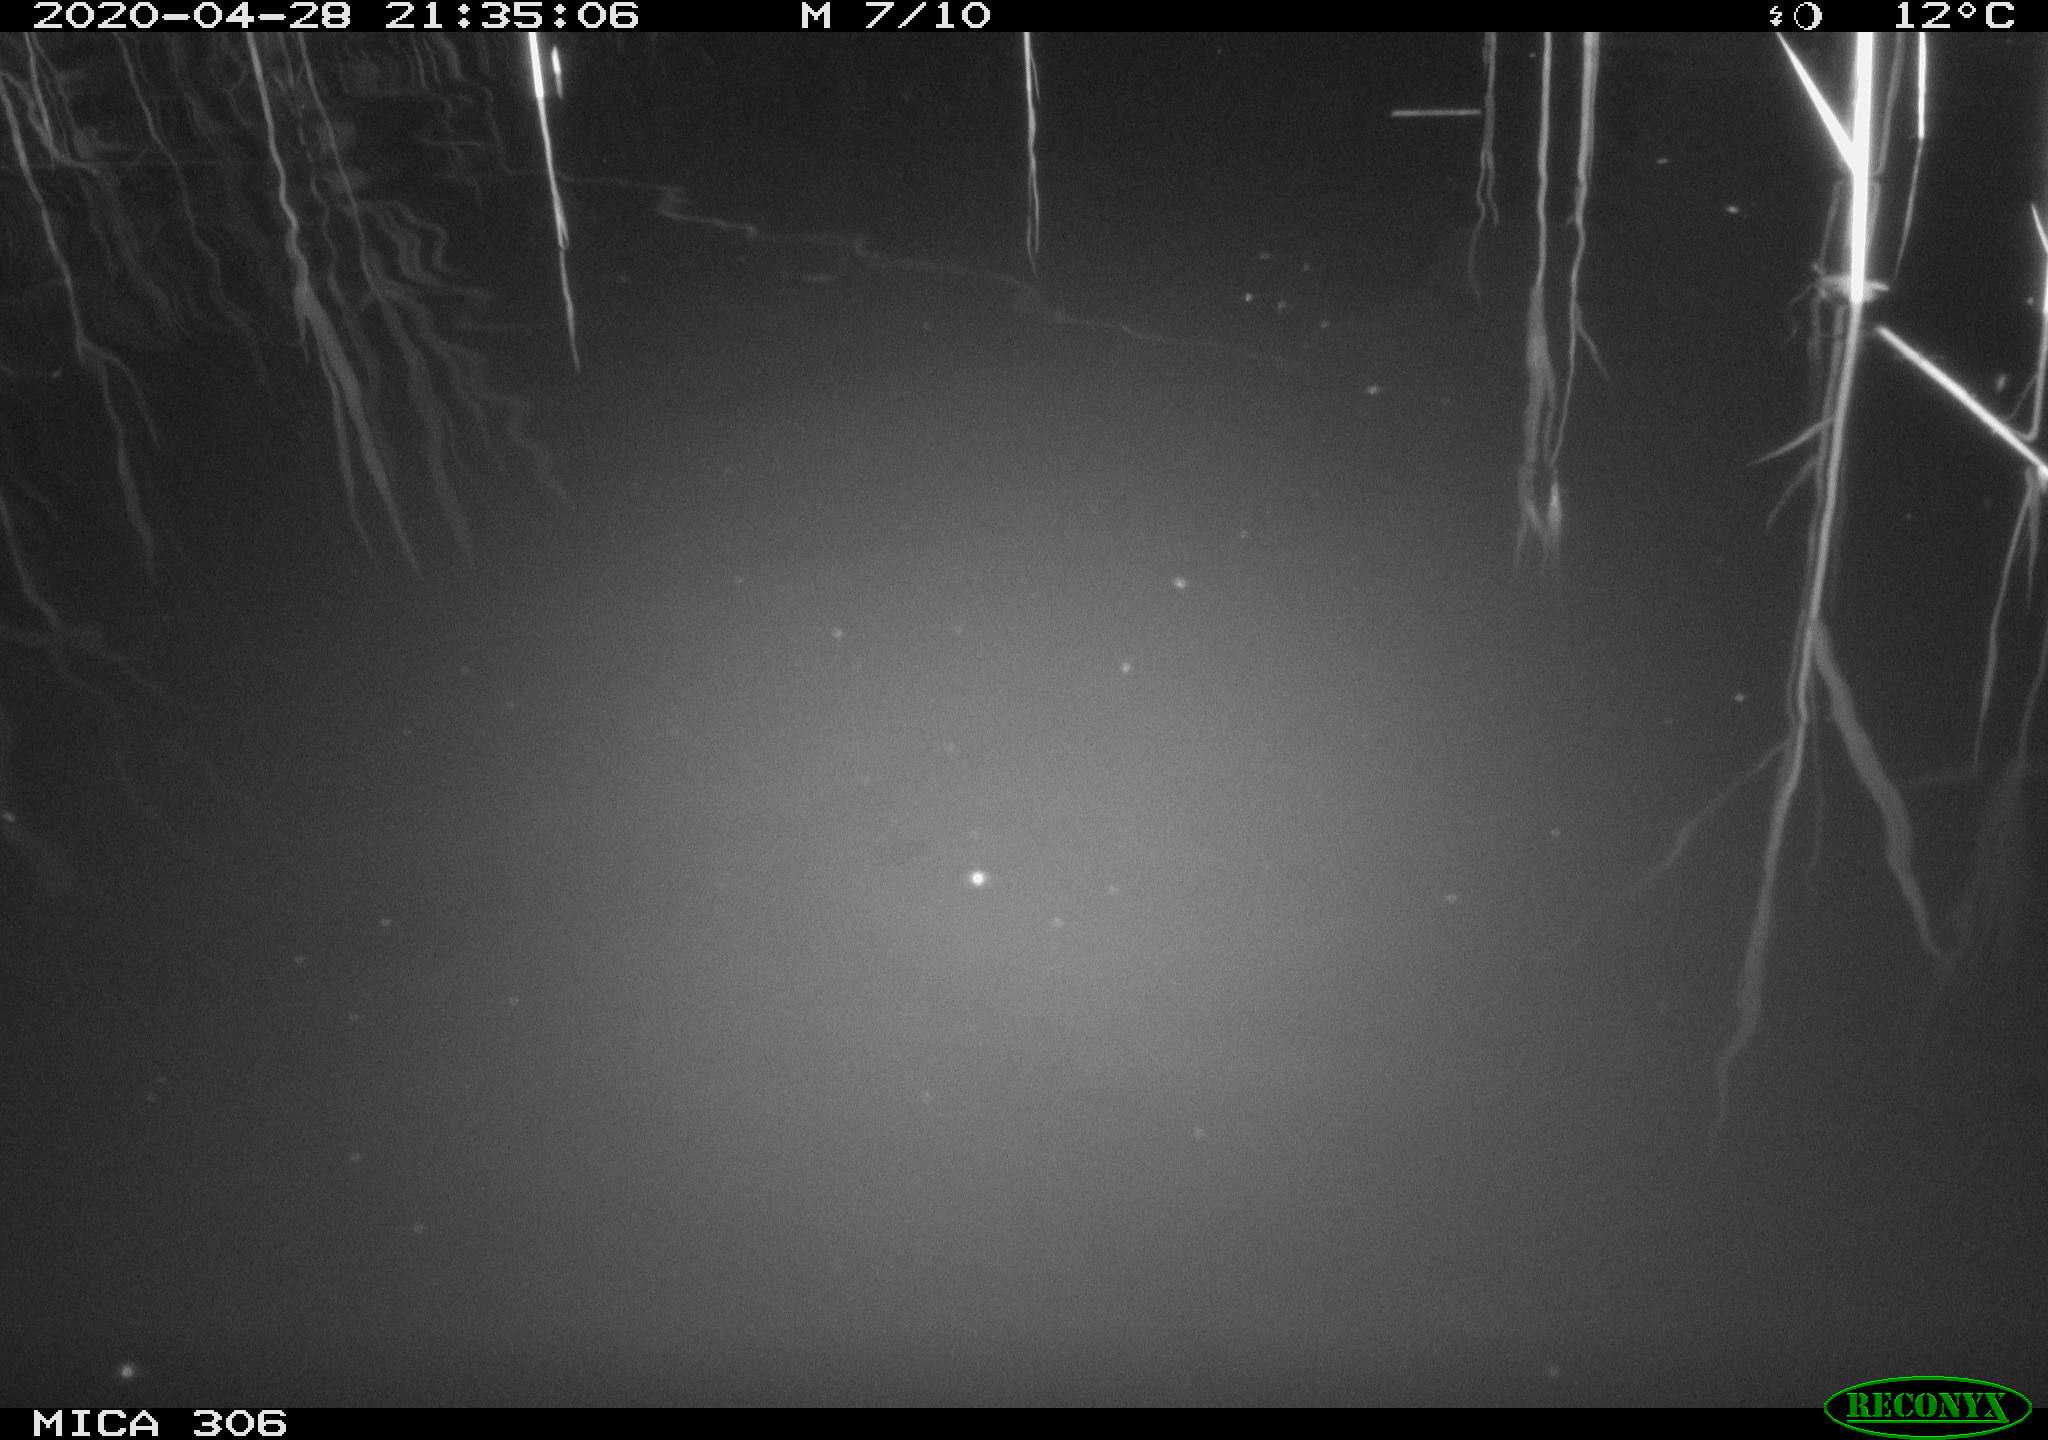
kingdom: Animalia
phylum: Chordata
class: Mammalia
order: Rodentia
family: Cricetidae
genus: Ondatra
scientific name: Ondatra zibethicus
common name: Muskrat
